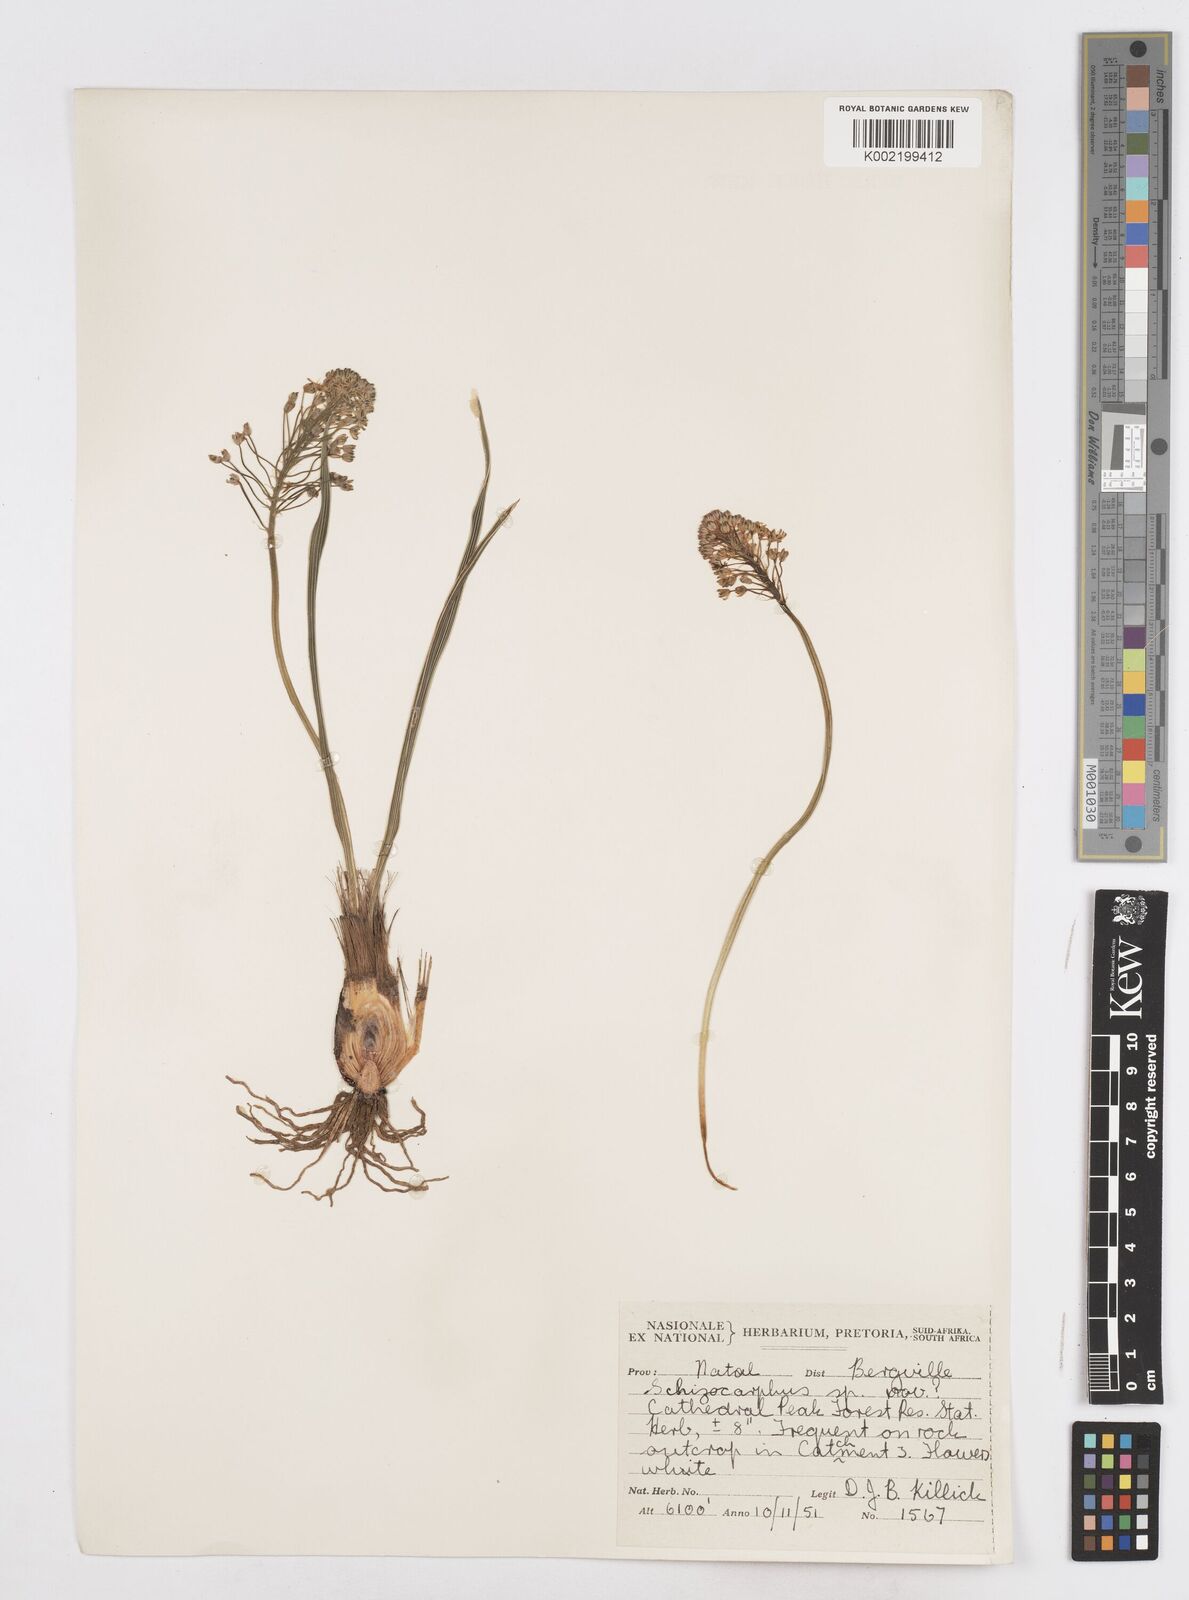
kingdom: Plantae
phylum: Tracheophyta
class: Liliopsida
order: Asparagales
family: Asparagaceae
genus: Schizocarphus
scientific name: Schizocarphus nervosus
